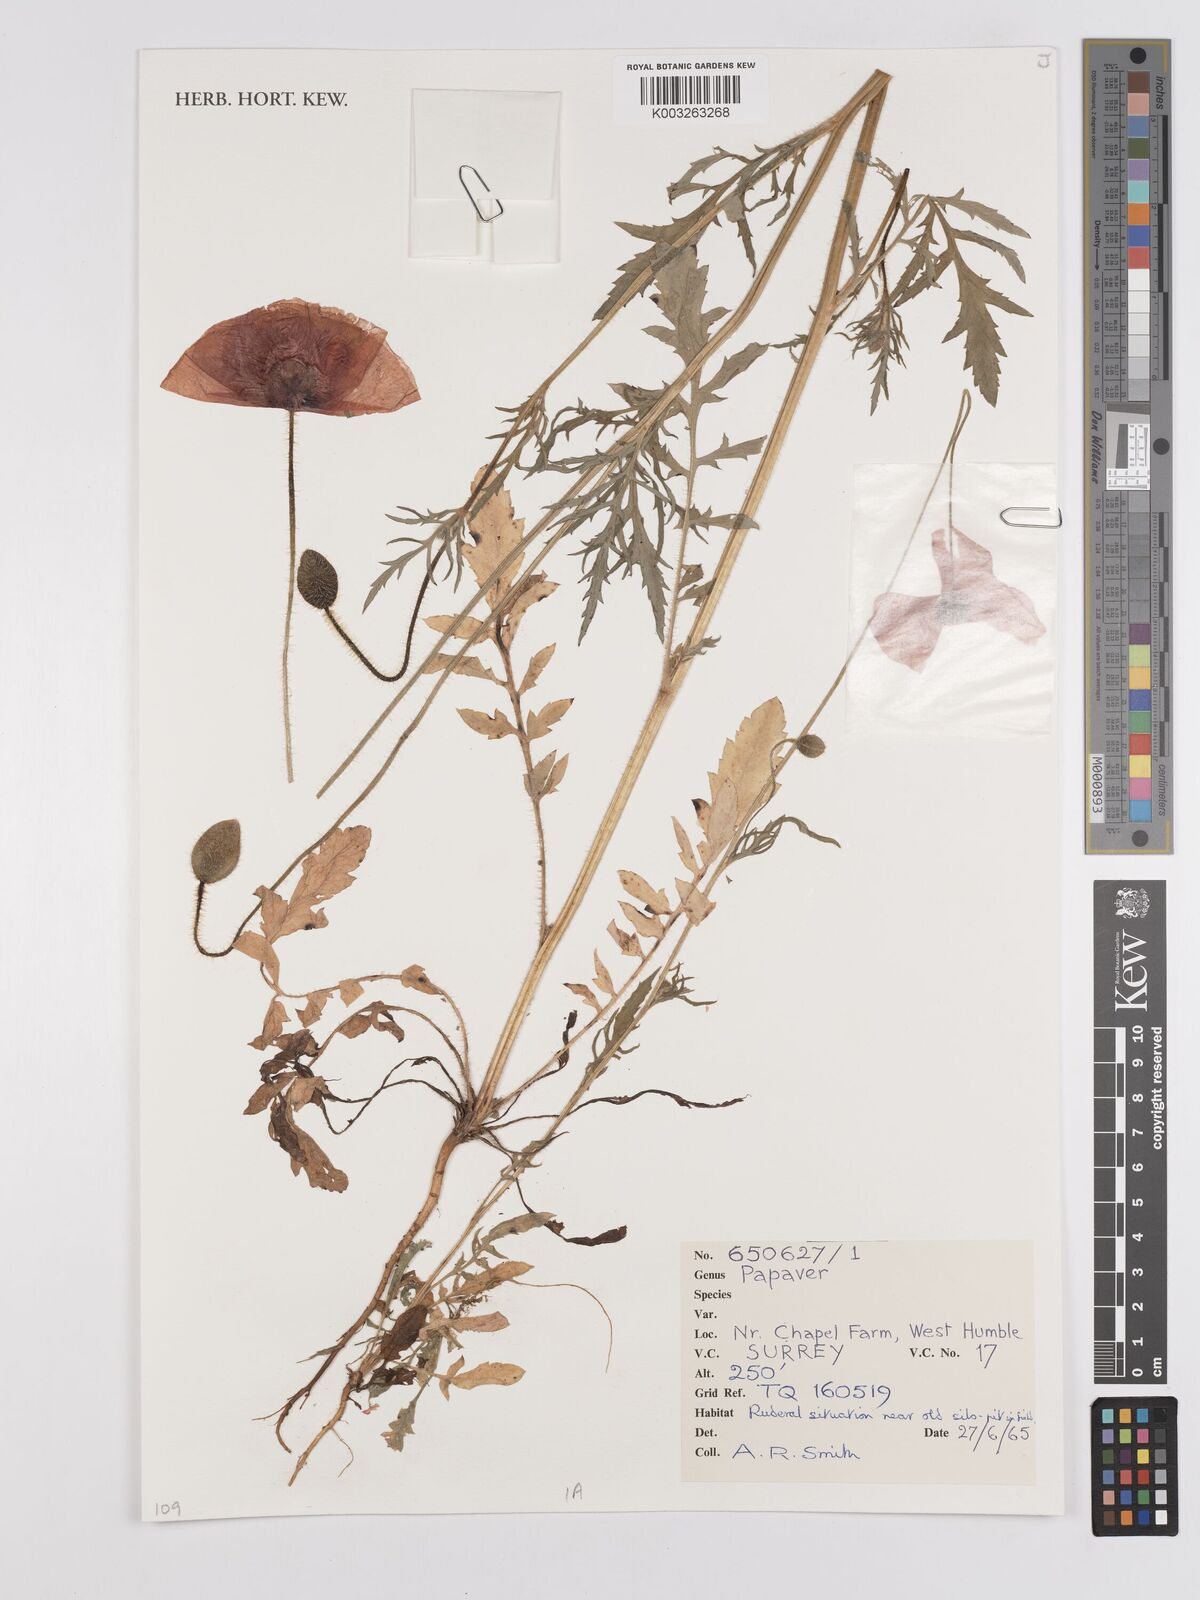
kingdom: Plantae
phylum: Tracheophyta
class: Magnoliopsida
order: Ranunculales
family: Papaveraceae
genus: Papaver
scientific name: Papaver
